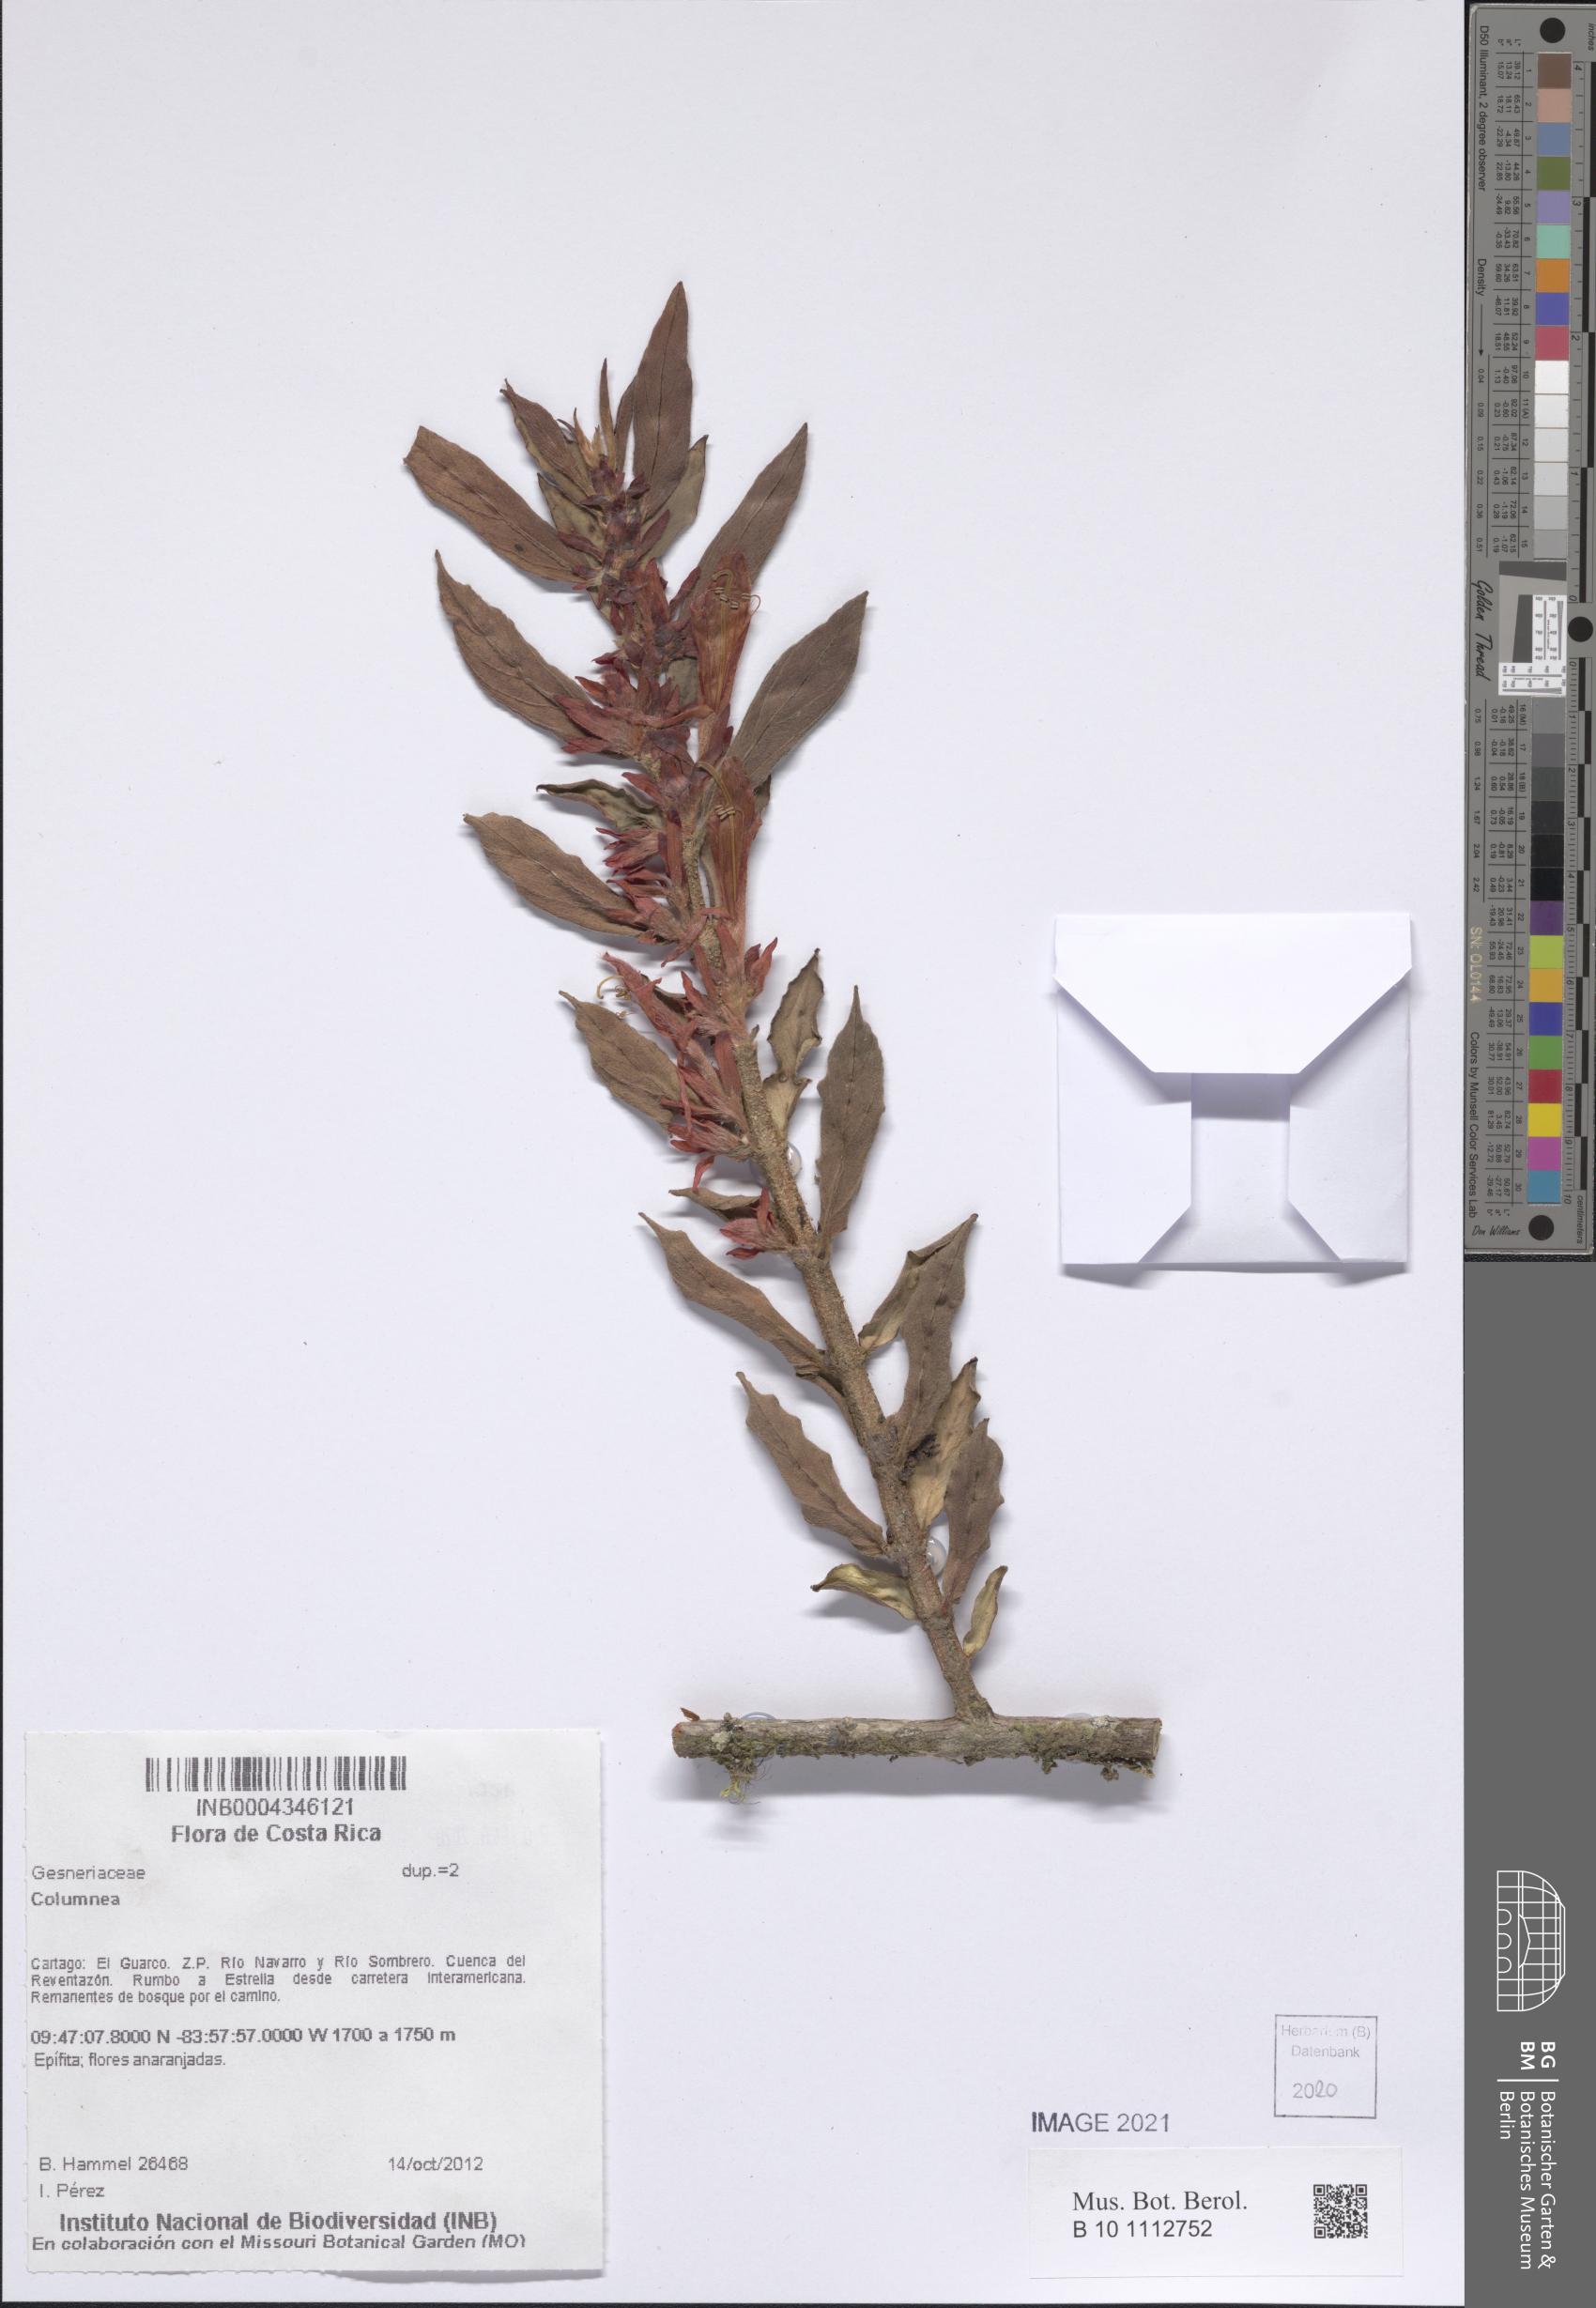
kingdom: Plantae
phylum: Tracheophyta
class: Magnoliopsida
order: Lamiales
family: Gesneriaceae
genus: Columnea
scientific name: Columnea
